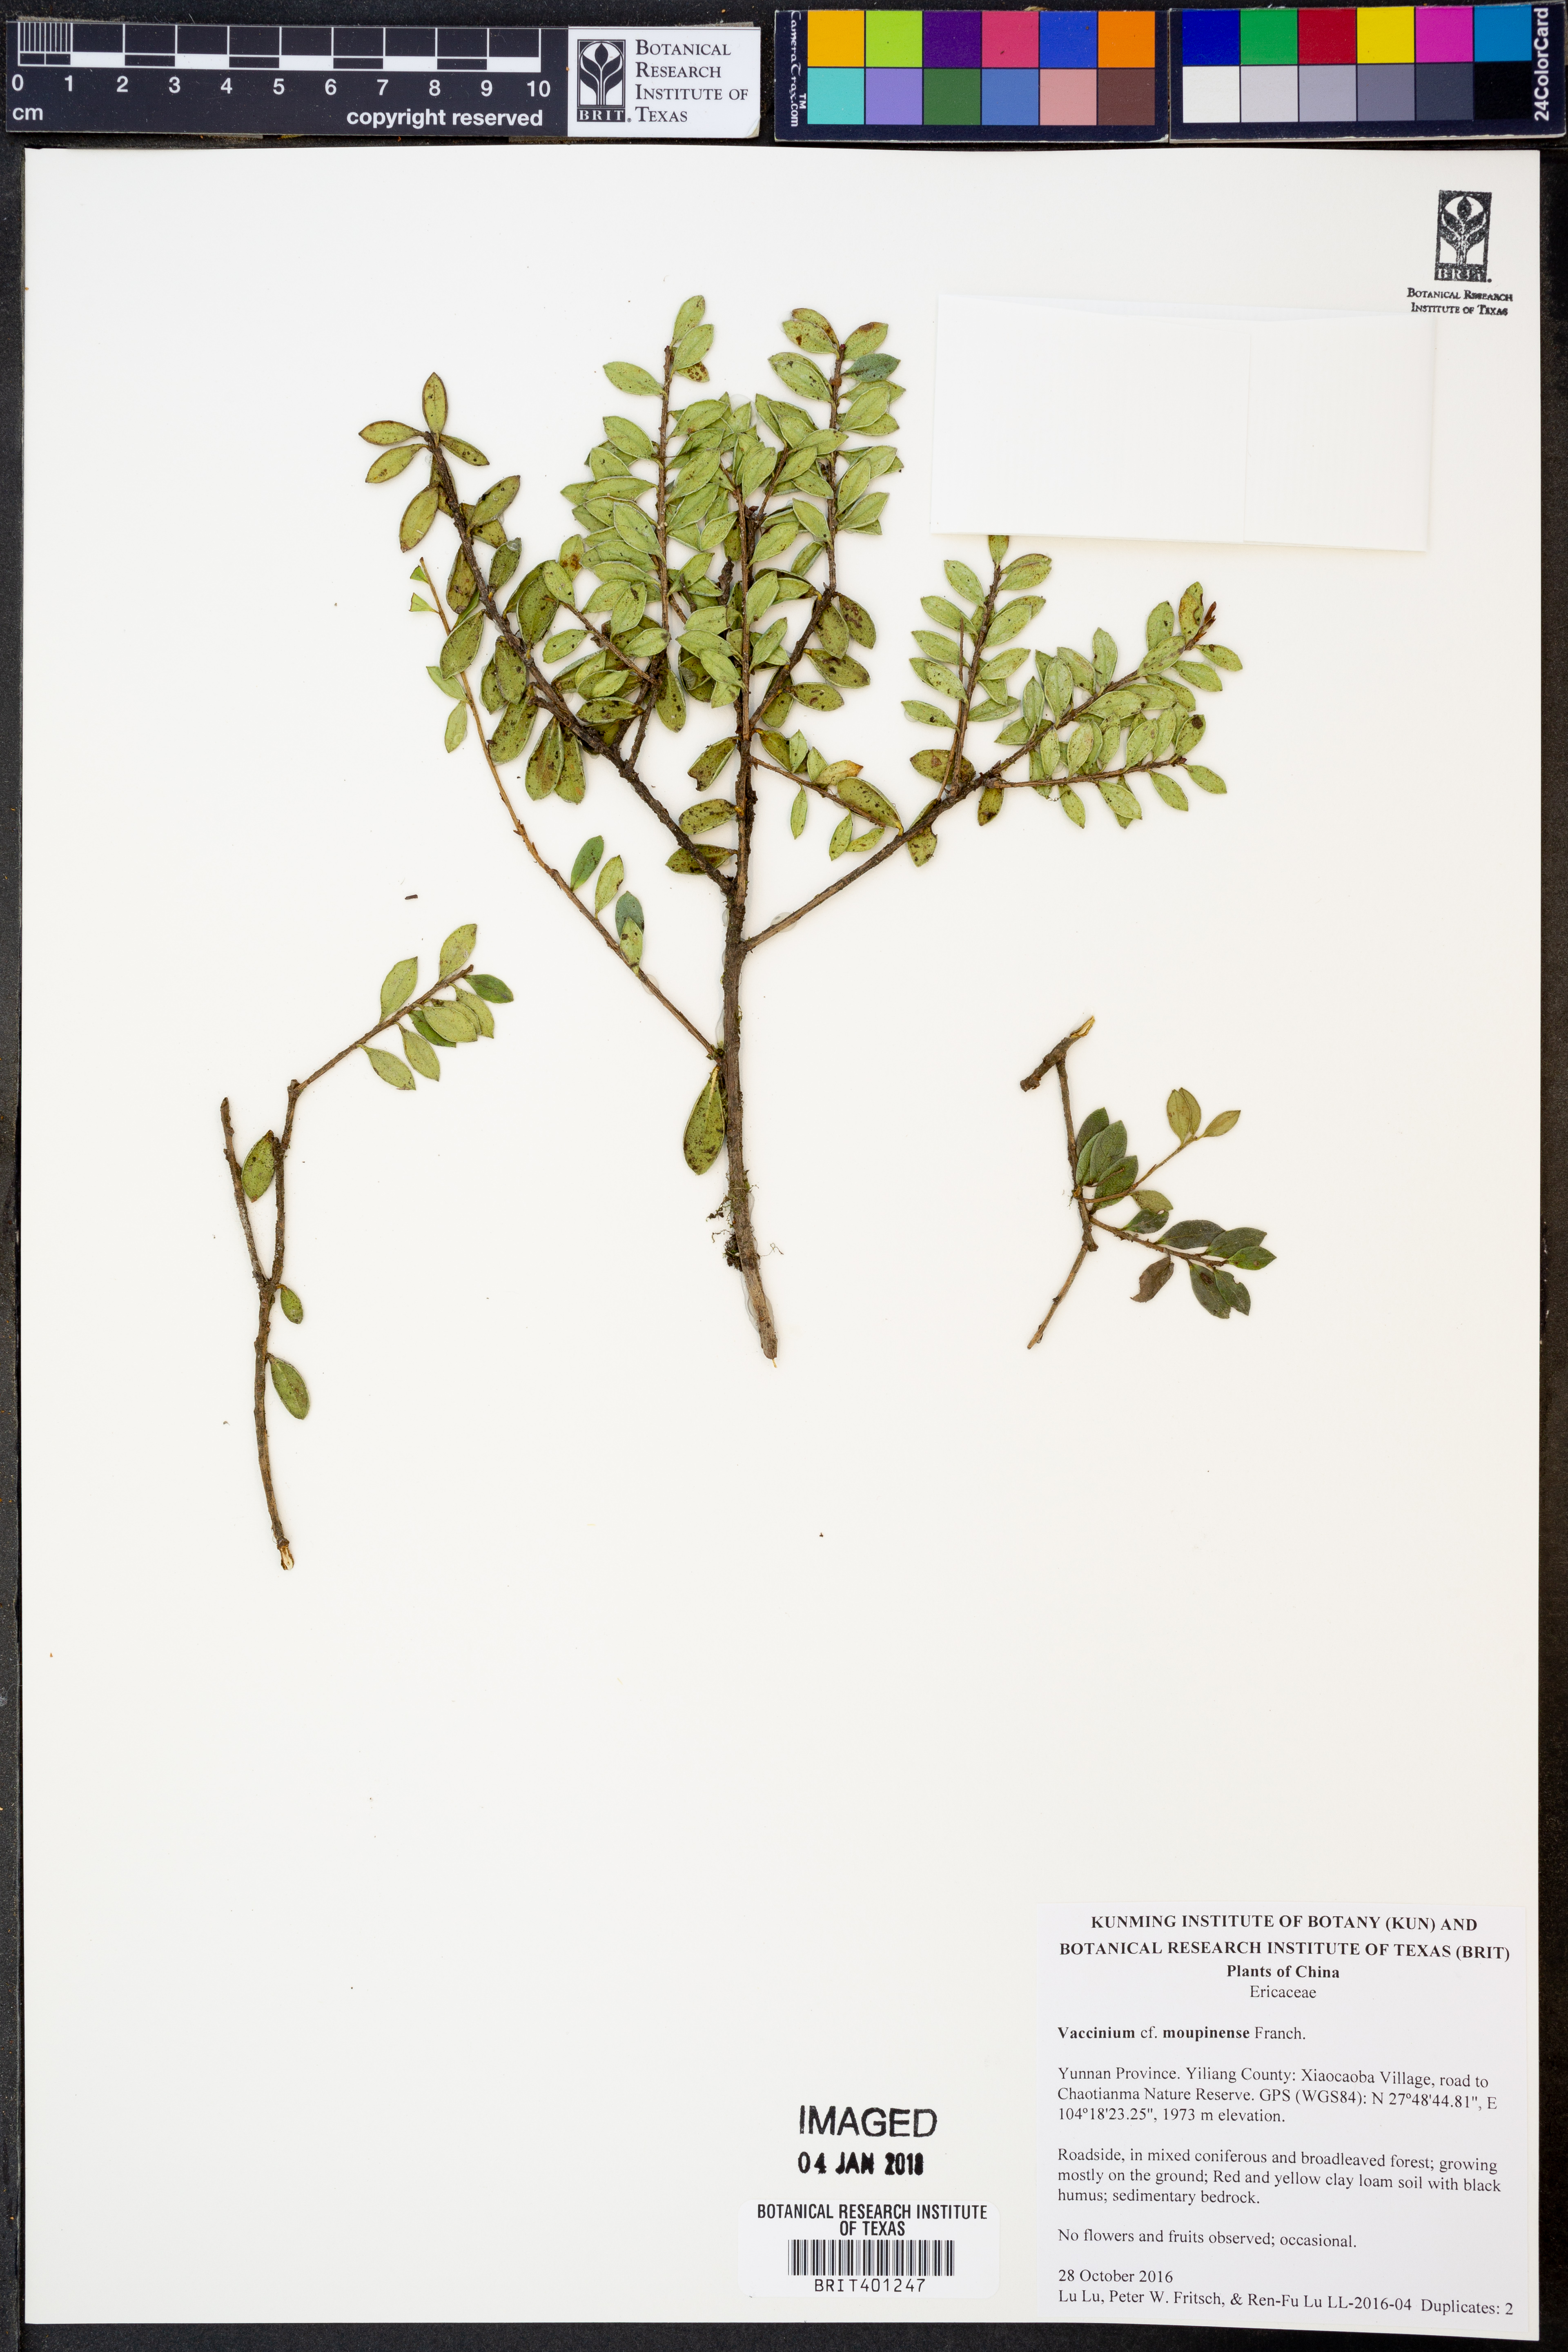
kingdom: Plantae
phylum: Tracheophyta
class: Magnoliopsida
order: Ericales
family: Ericaceae
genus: Vaccinium
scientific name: Vaccinium moupinense
